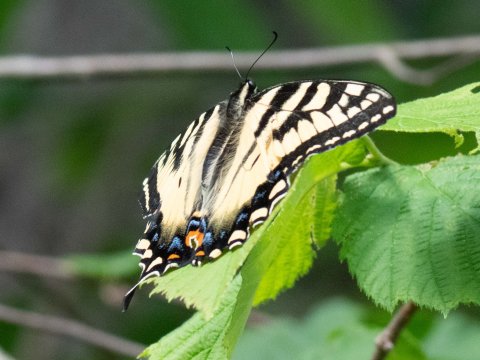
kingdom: Animalia
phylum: Arthropoda
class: Insecta
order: Lepidoptera
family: Papilionidae
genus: Papilio
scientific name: Papilio
